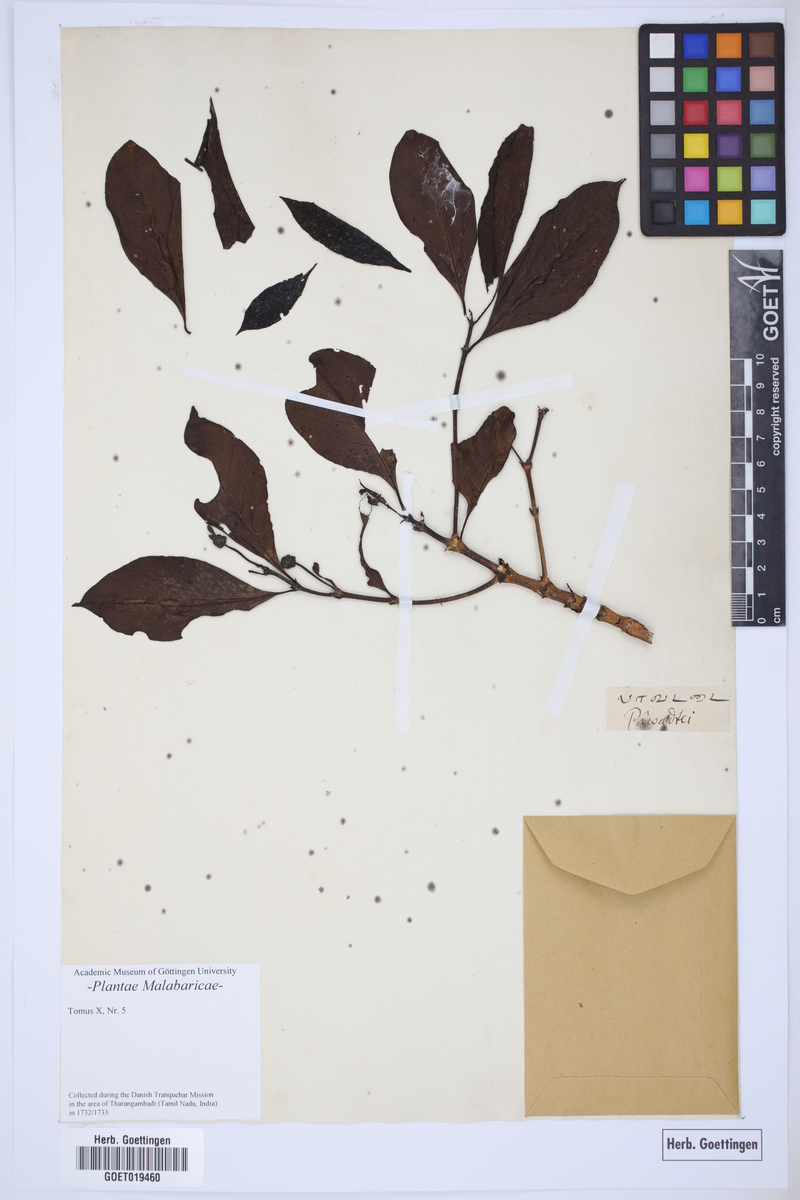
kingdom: Plantae
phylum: Tracheophyta
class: Magnoliopsida
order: Gentianales
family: Rubiaceae
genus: Pavetta
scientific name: Pavetta indica
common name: Indian pavetta
